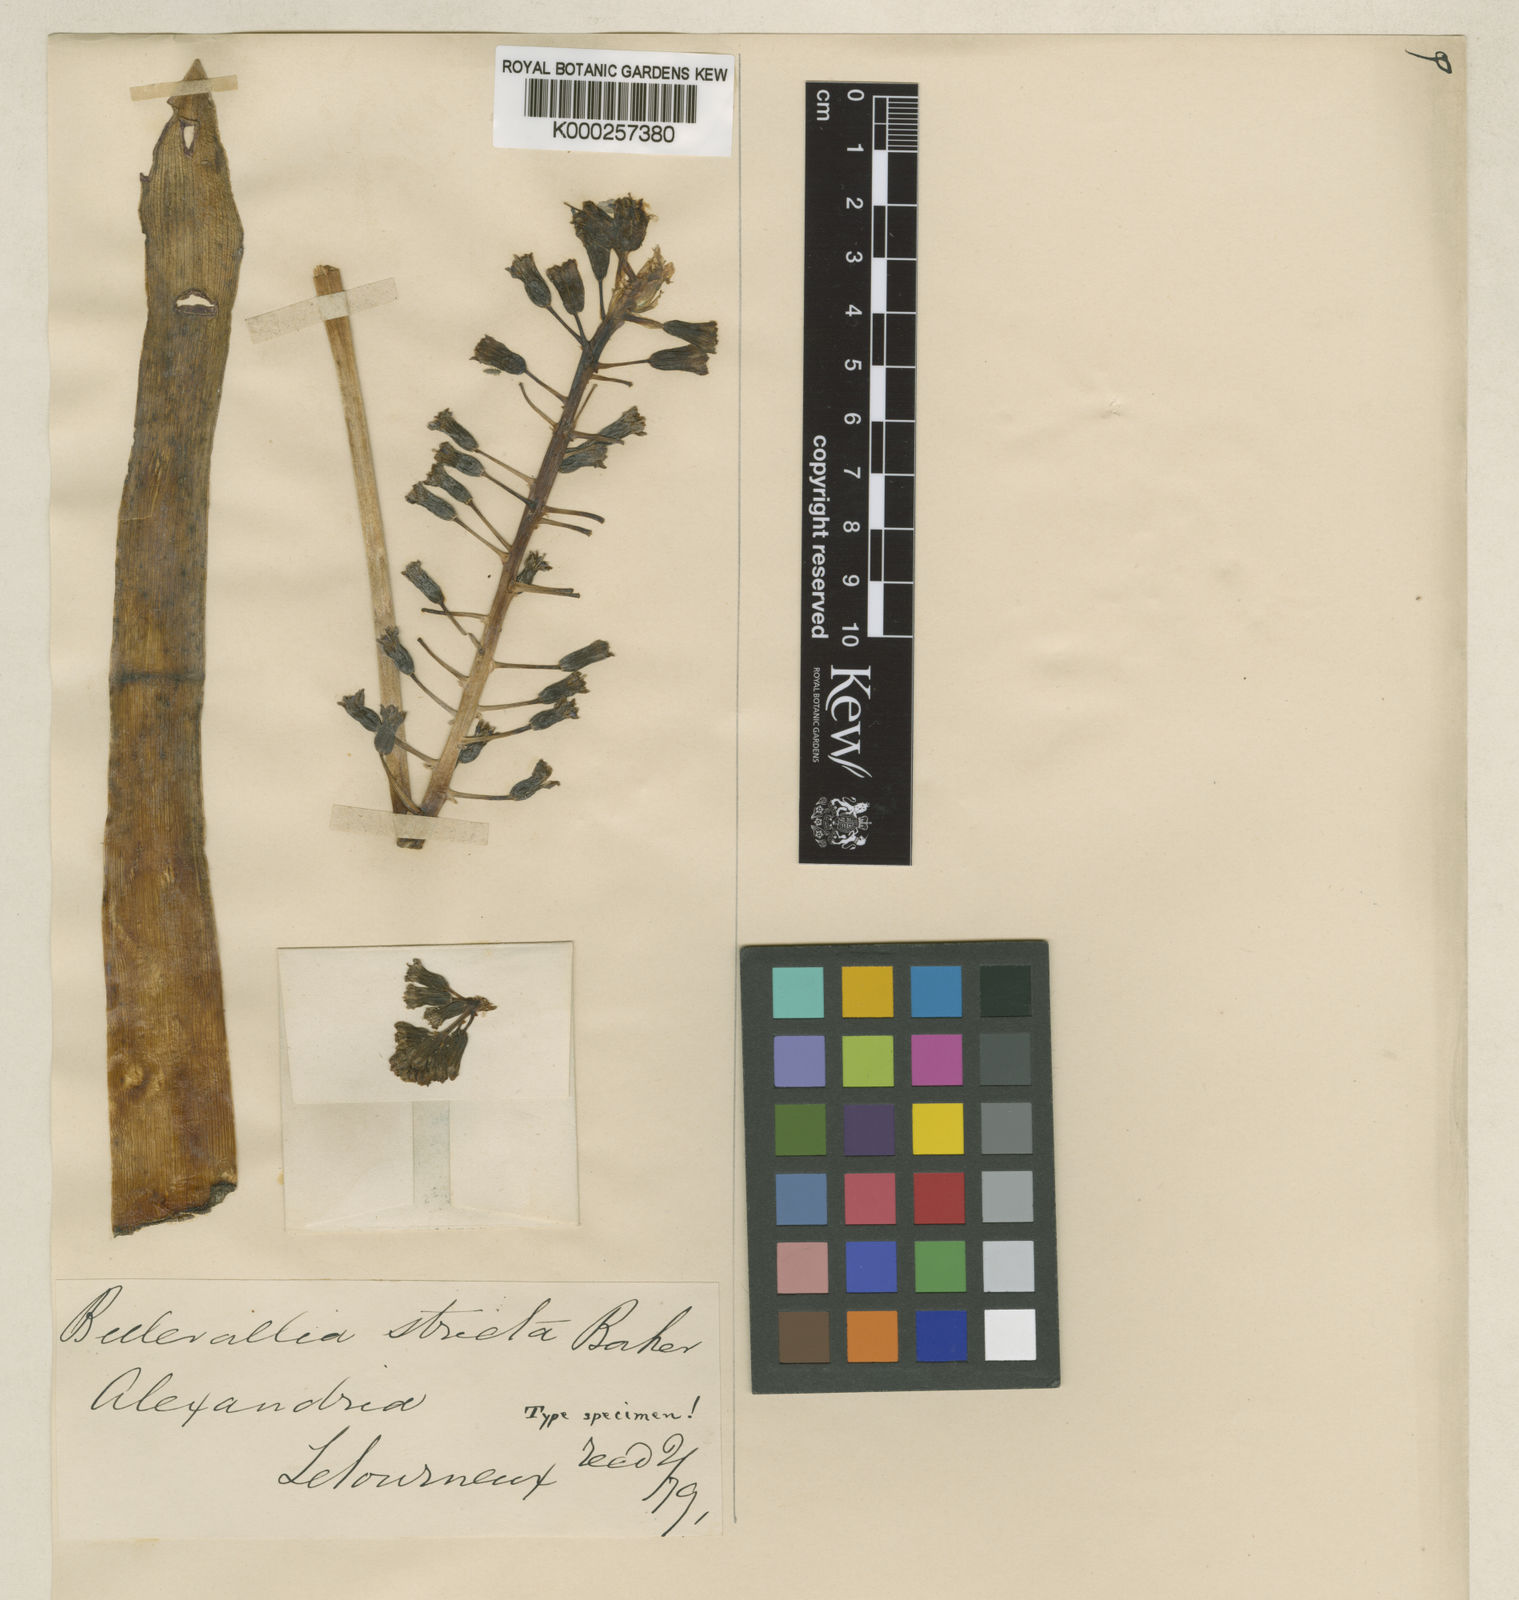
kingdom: Plantae
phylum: Tracheophyta
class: Liliopsida
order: Asparagales
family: Asparagaceae
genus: Bellevalia
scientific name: Bellevalia eigii
